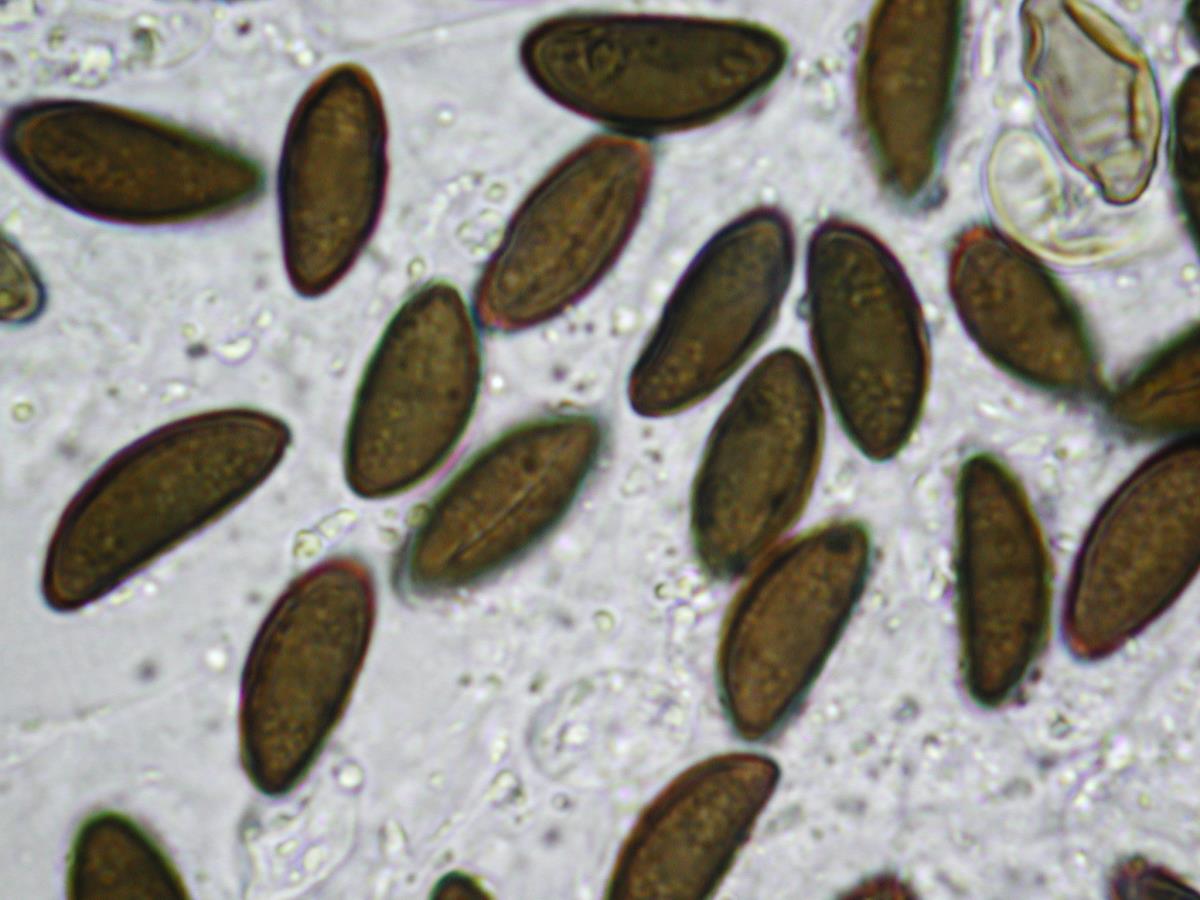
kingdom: Fungi
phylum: Ascomycota
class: Sordariomycetes
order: Xylariales
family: Hypoxylaceae
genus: Daldinia
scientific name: Daldinia dennisii
